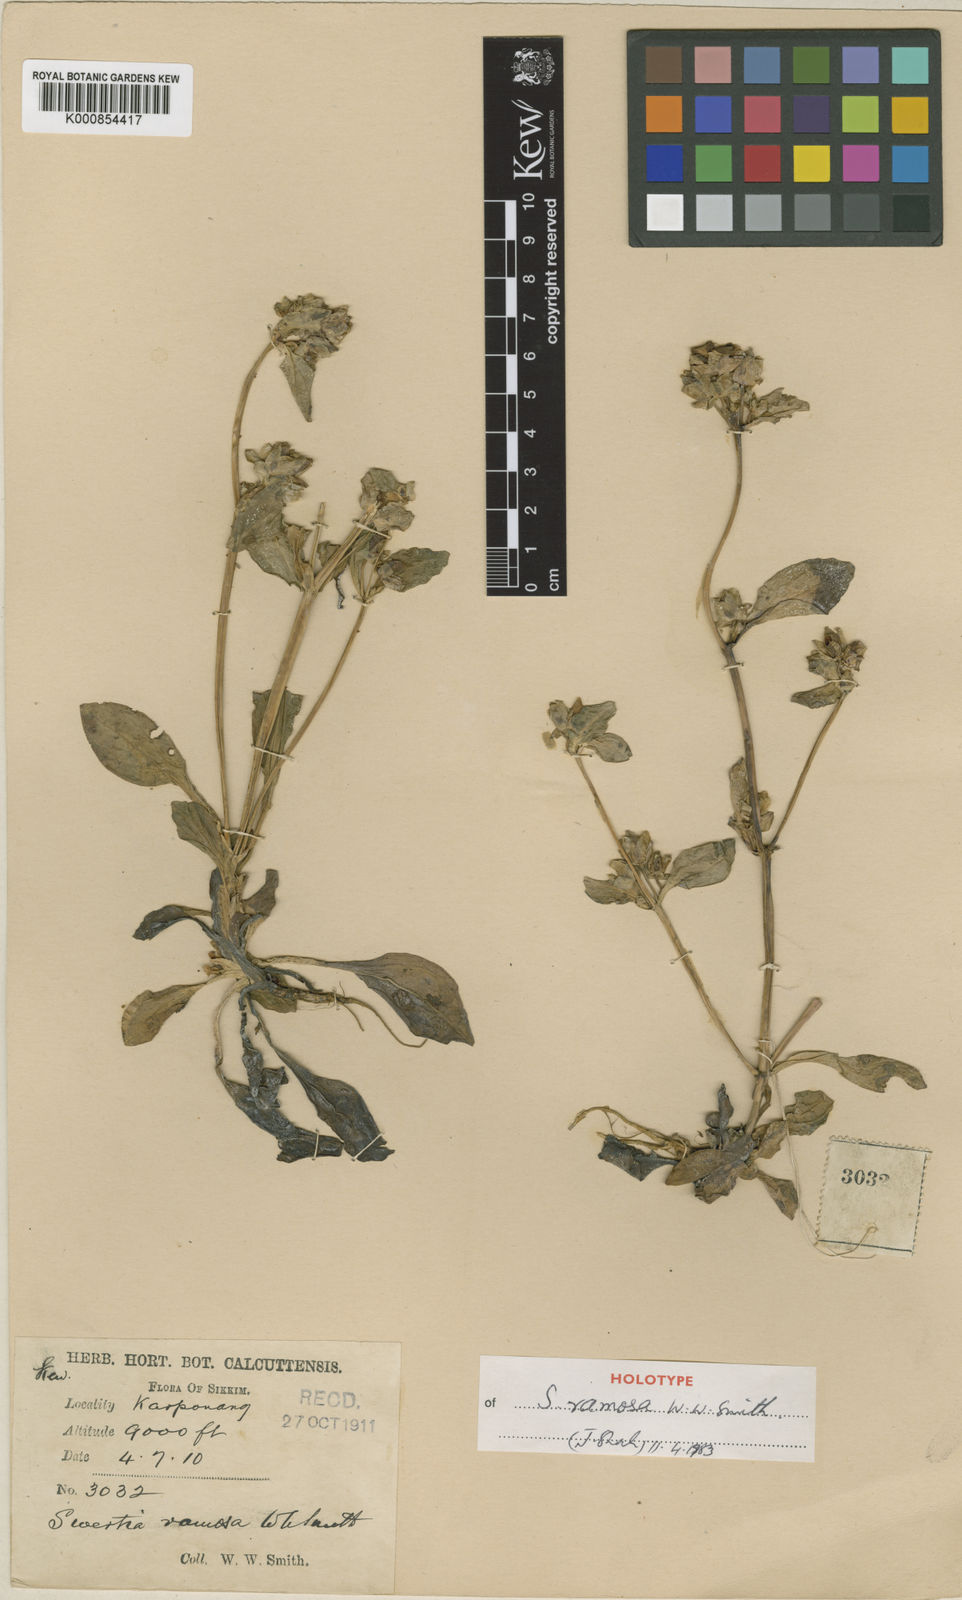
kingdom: Plantae
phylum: Tracheophyta
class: Magnoliopsida
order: Gentianales
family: Gentianaceae
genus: Swertia
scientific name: Swertia ramosa
